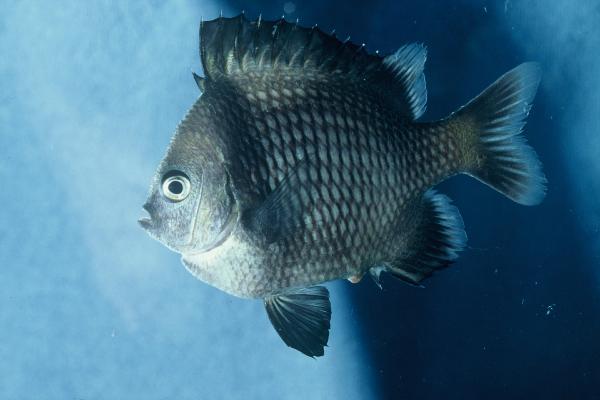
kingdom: Animalia
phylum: Chordata
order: Perciformes
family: Pomacentridae
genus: Dascyllus
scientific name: Dascyllus reticulatus
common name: Reticulated dascyllus
